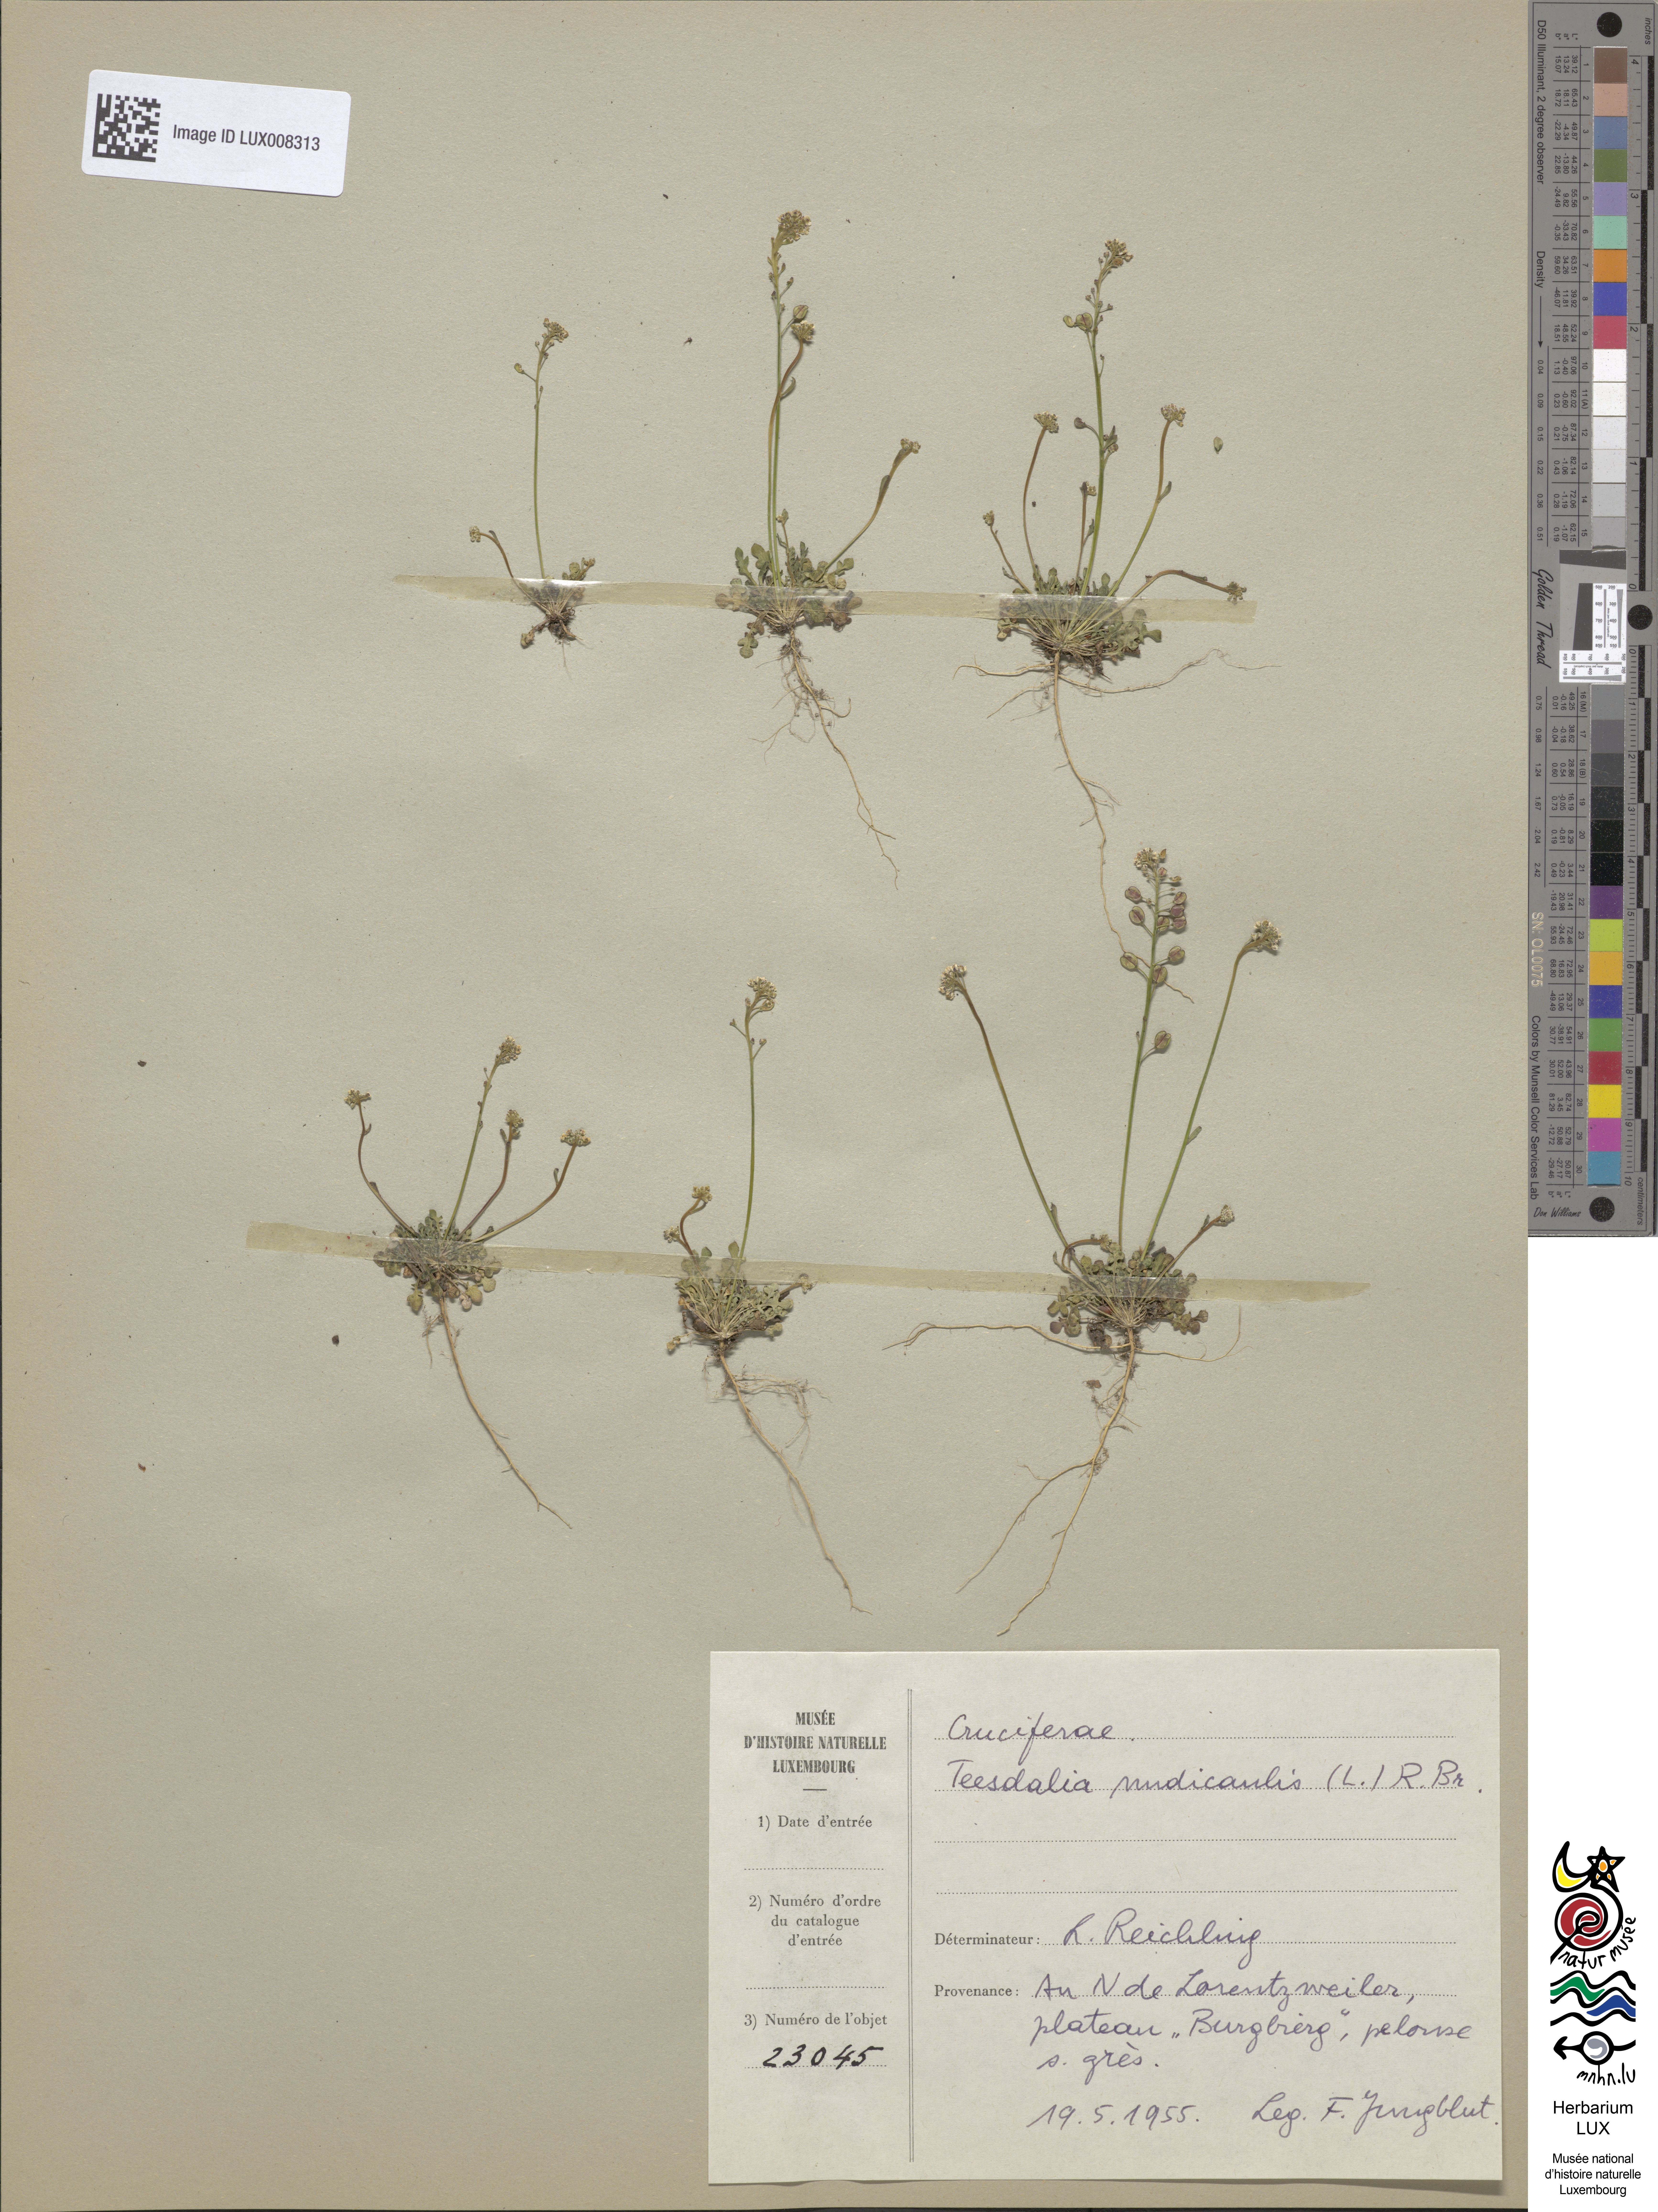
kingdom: Plantae
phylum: Tracheophyta
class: Magnoliopsida
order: Brassicales
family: Brassicaceae
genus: Teesdalia
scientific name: Teesdalia nudicaulis
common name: Shepherd's cress
